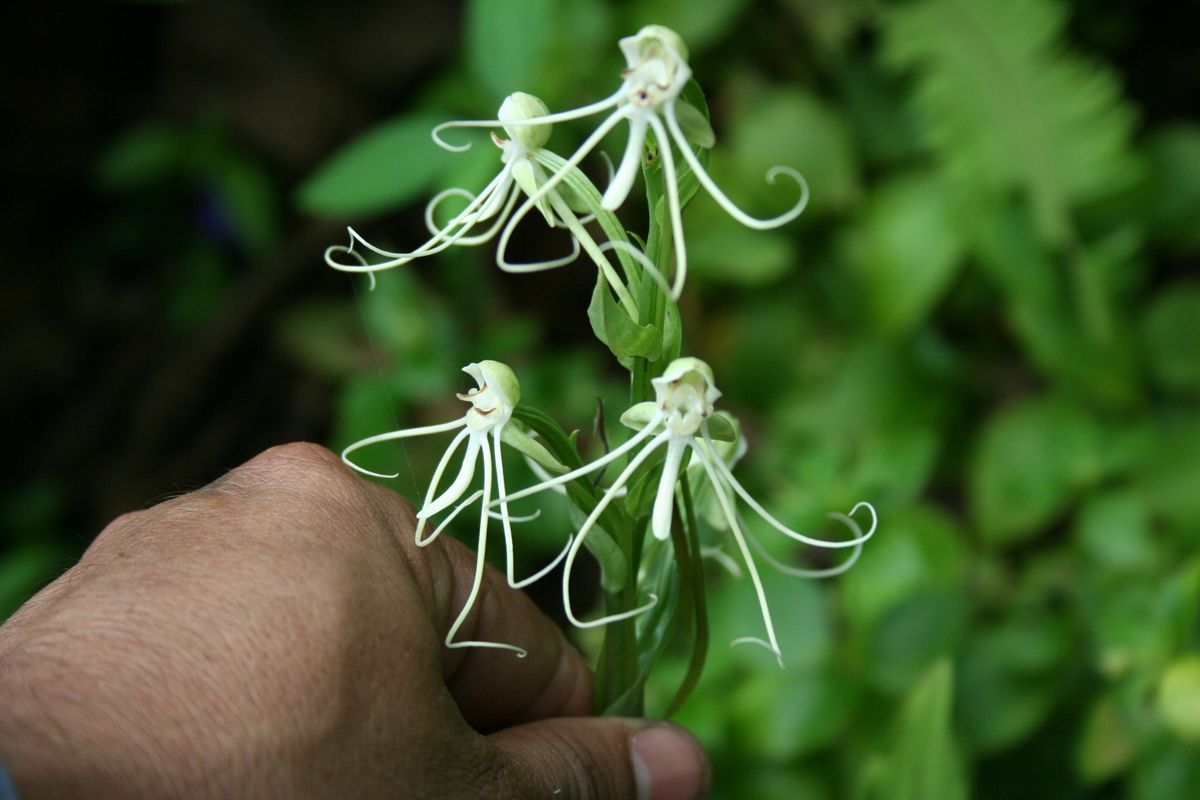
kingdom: Plantae
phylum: Tracheophyta
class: Liliopsida
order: Asparagales
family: Orchidaceae
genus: Habenaria
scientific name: Habenaria
